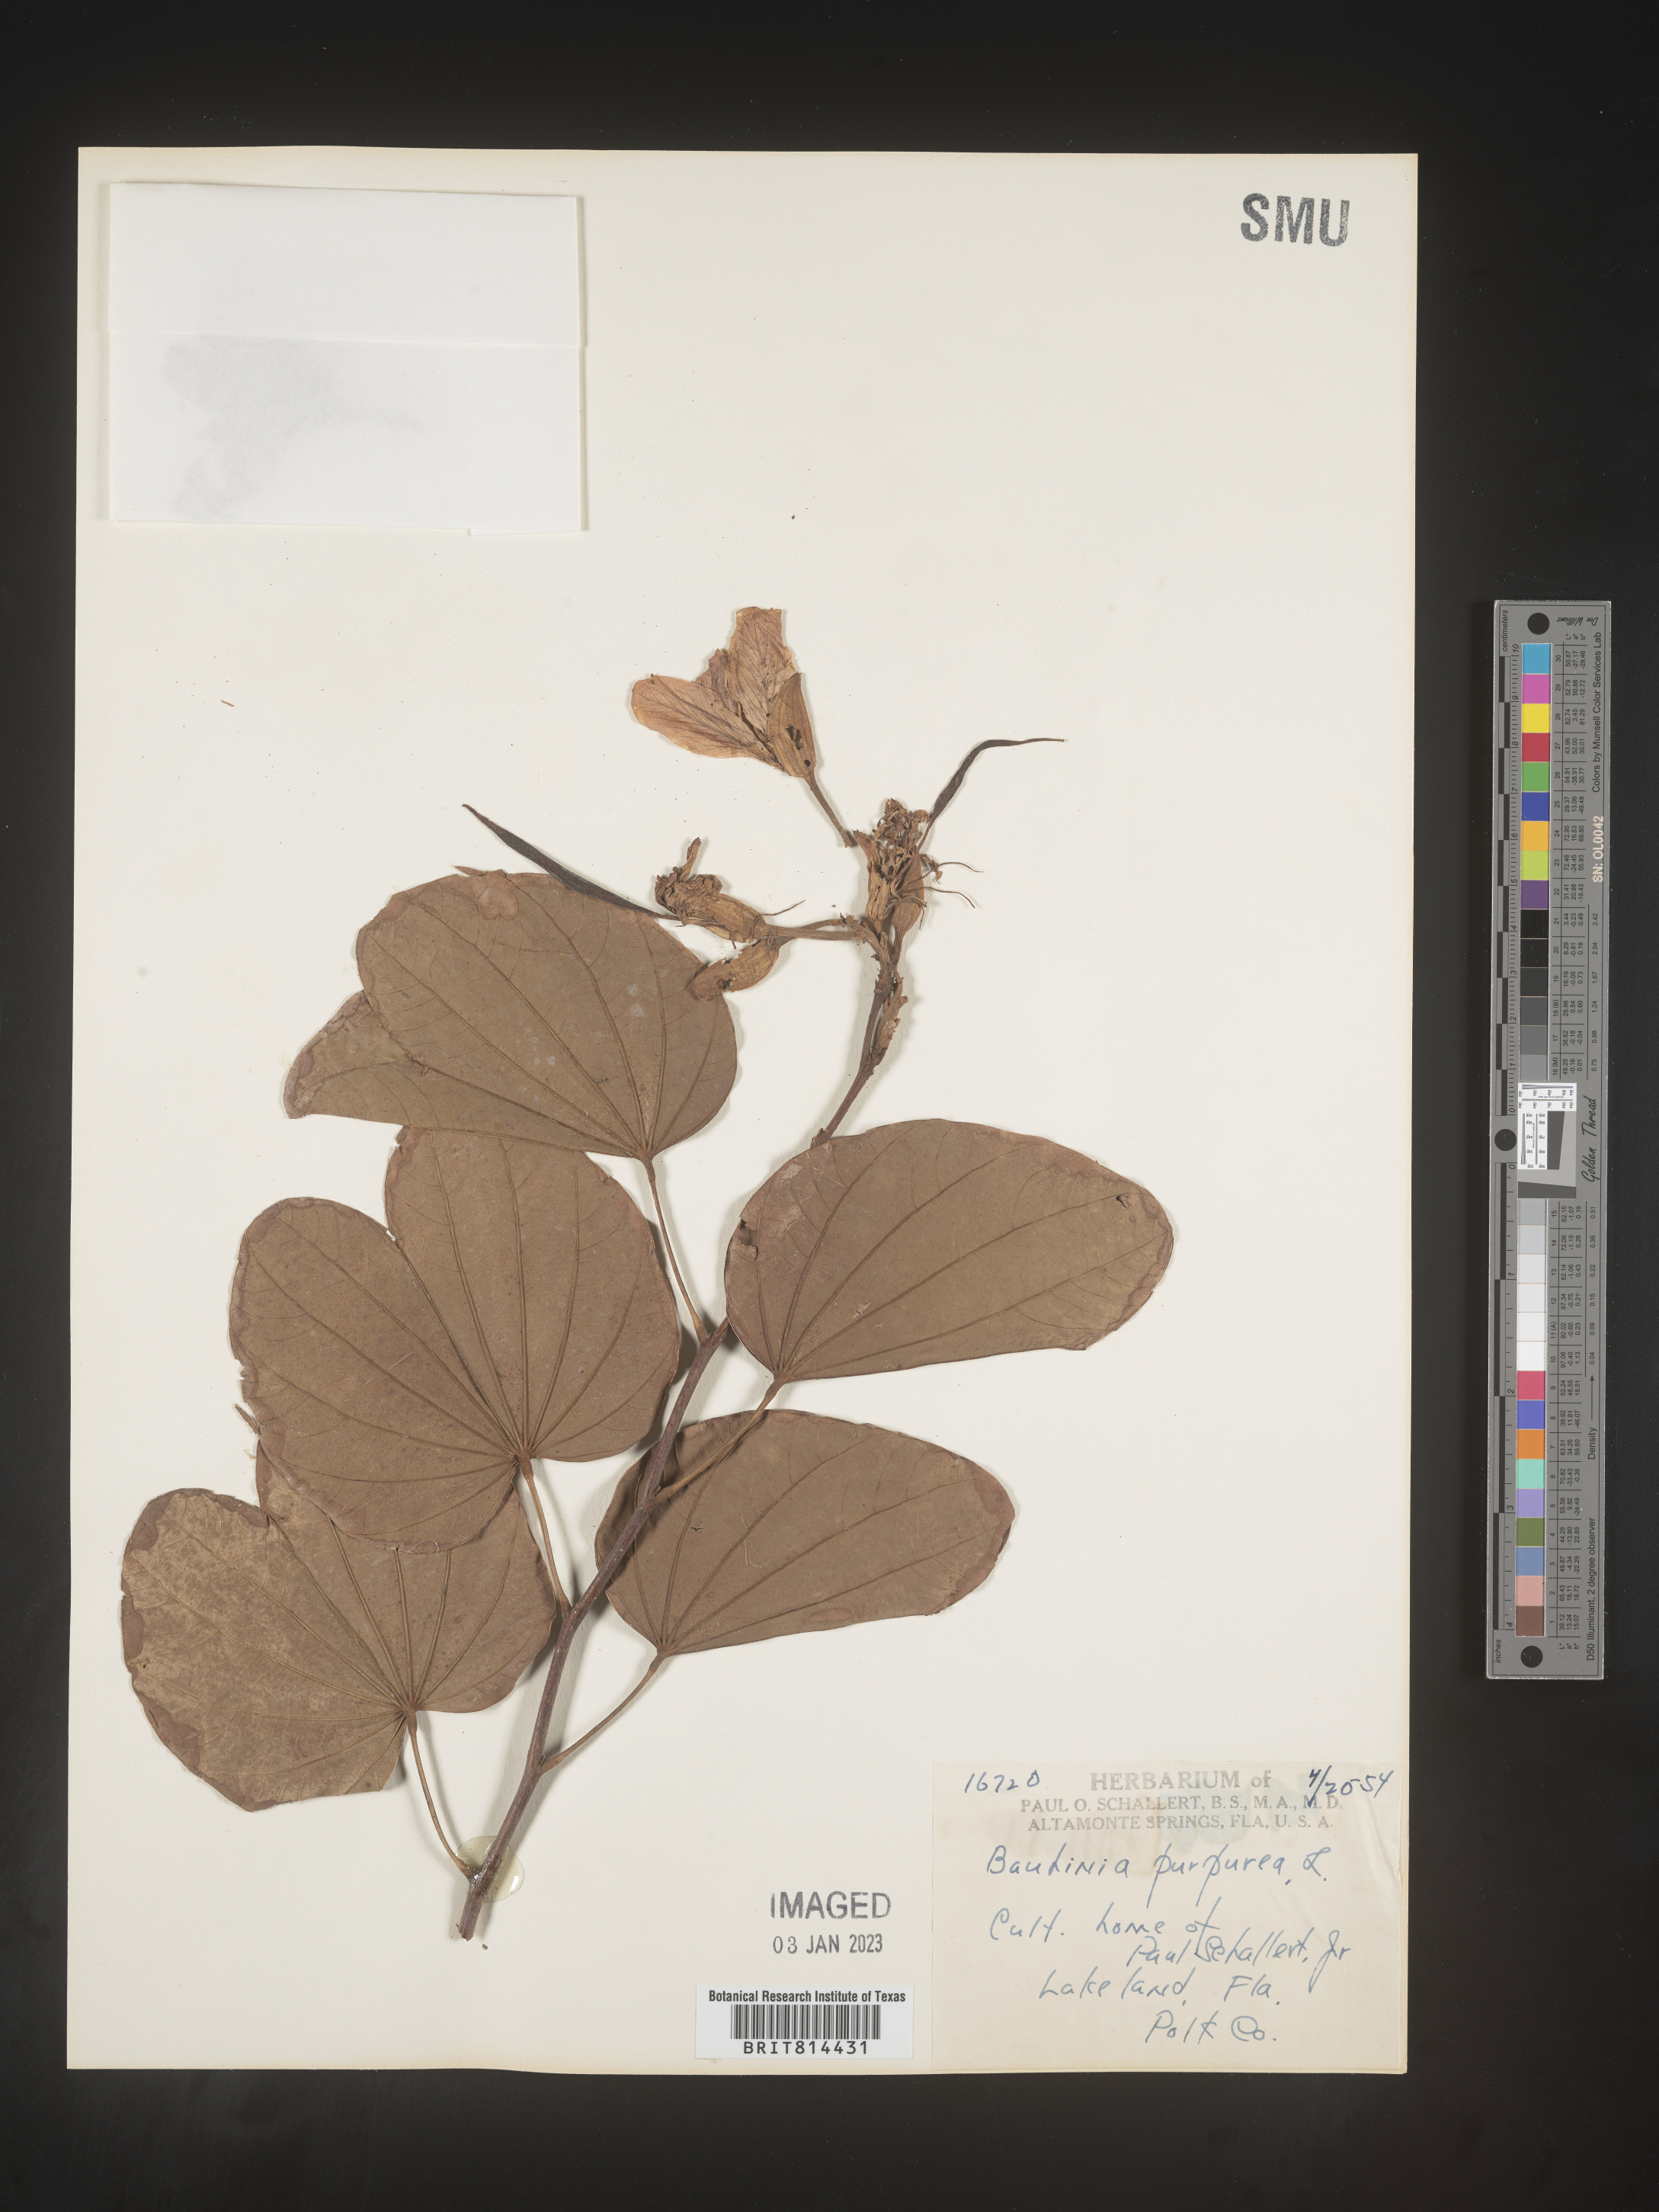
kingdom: Plantae
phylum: Tracheophyta
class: Magnoliopsida
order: Fabales
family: Fabaceae
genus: Bauhinia
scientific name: Bauhinia
